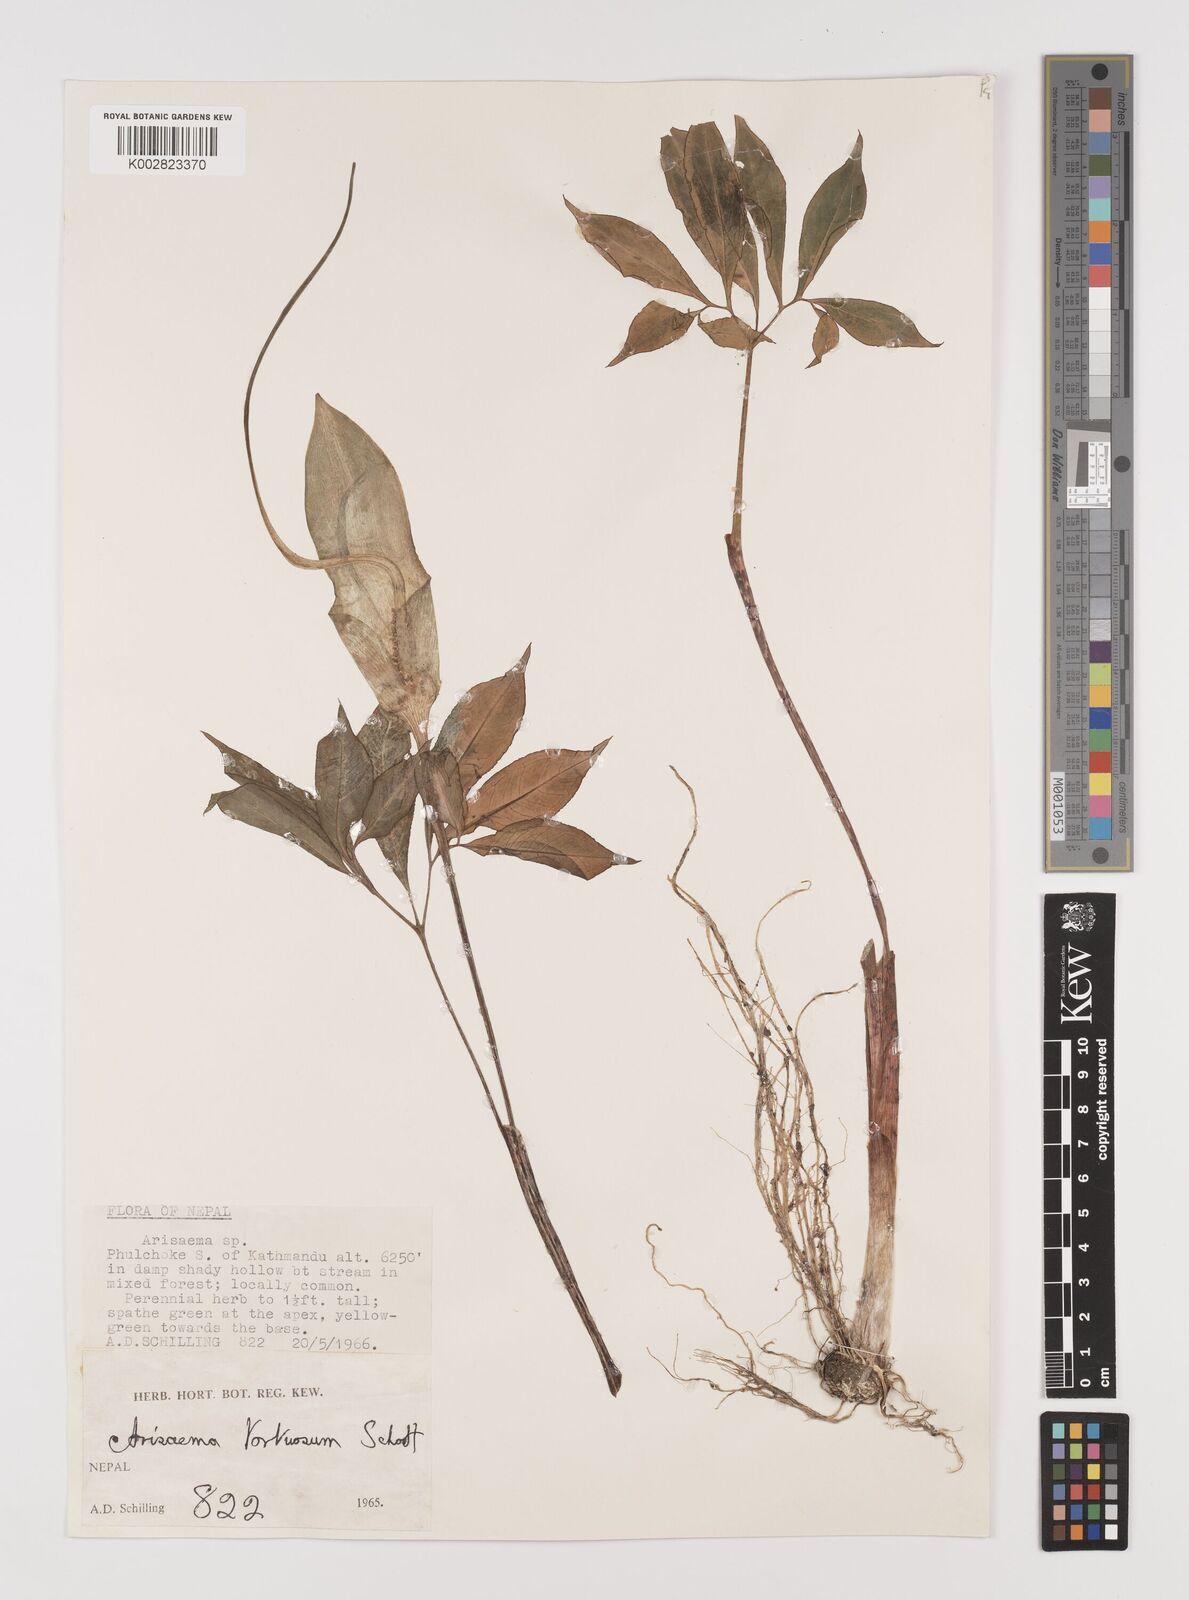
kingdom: Plantae
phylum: Tracheophyta
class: Liliopsida
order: Alismatales
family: Araceae
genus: Arisaema
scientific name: Arisaema tortuosum
